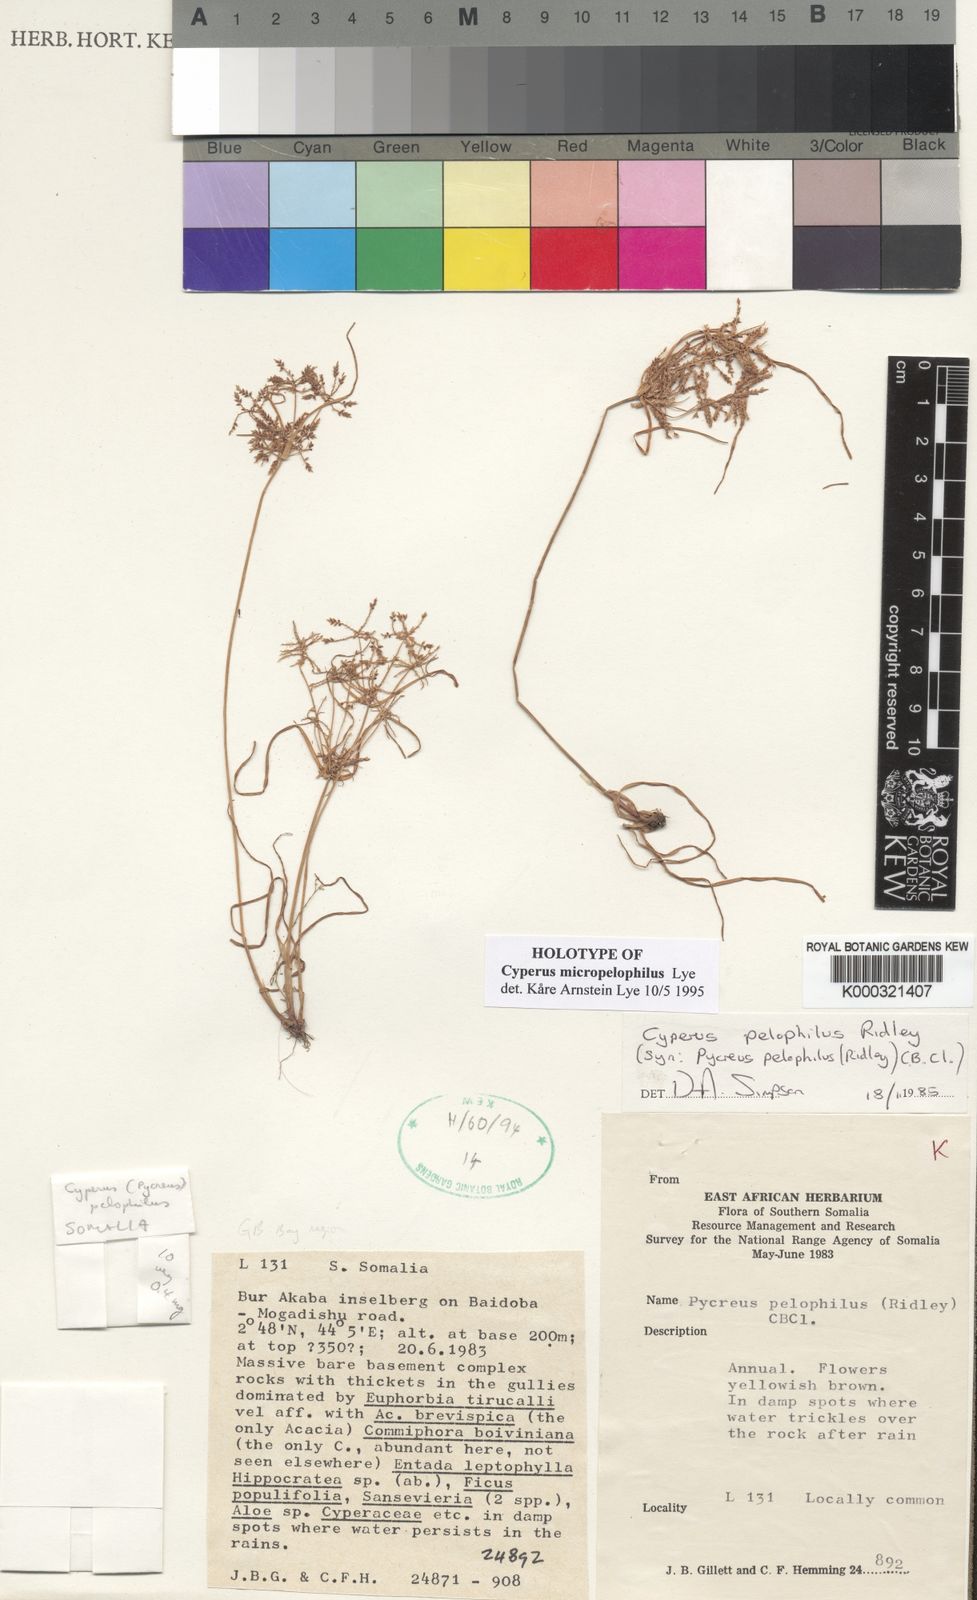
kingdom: Plantae
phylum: Tracheophyta
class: Liliopsida
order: Poales
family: Cyperaceae
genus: Cyperus
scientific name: Cyperus micropelophilus
